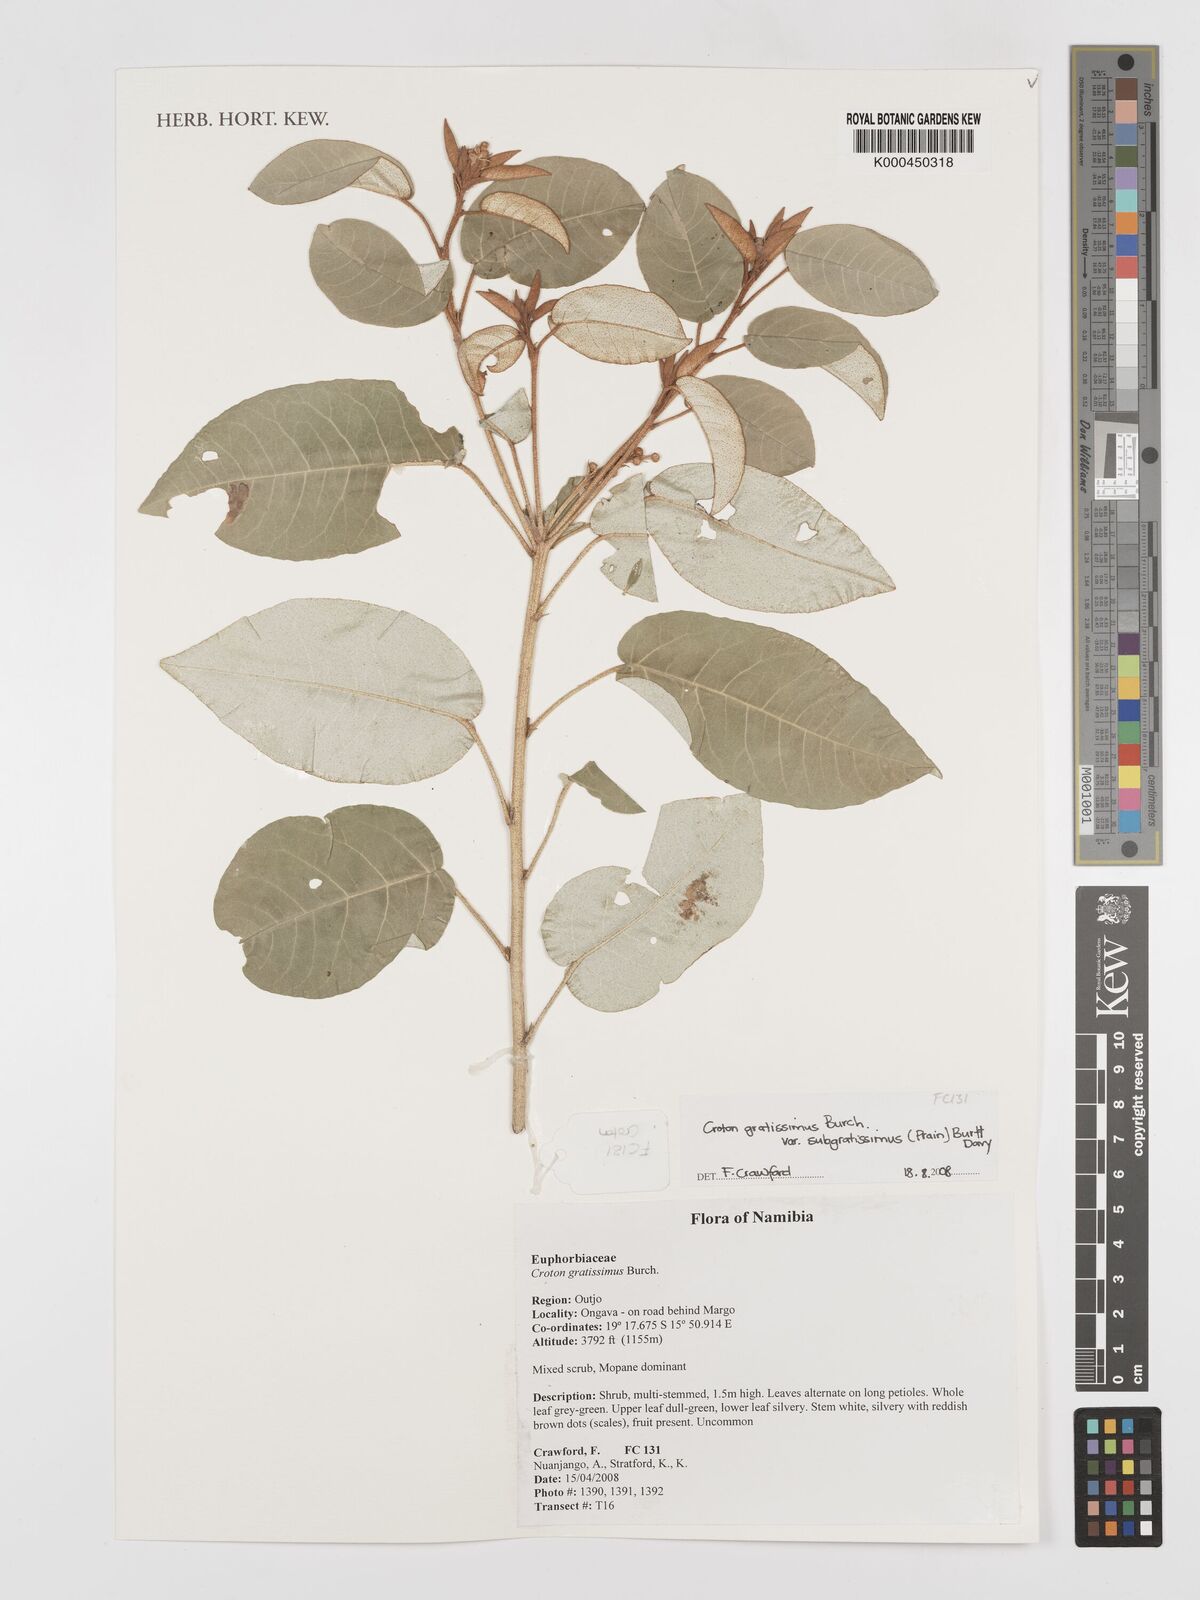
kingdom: Plantae
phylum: Tracheophyta
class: Magnoliopsida
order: Malpighiales
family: Euphorbiaceae
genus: Croton
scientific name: Croton gratissimus
